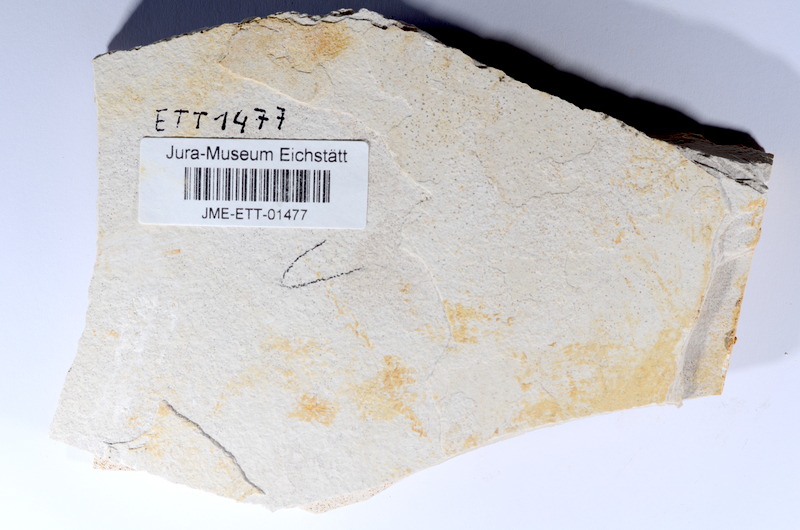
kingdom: Animalia
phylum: Chordata
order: Salmoniformes
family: Orthogonikleithridae
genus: Orthogonikleithrus
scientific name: Orthogonikleithrus hoelli
